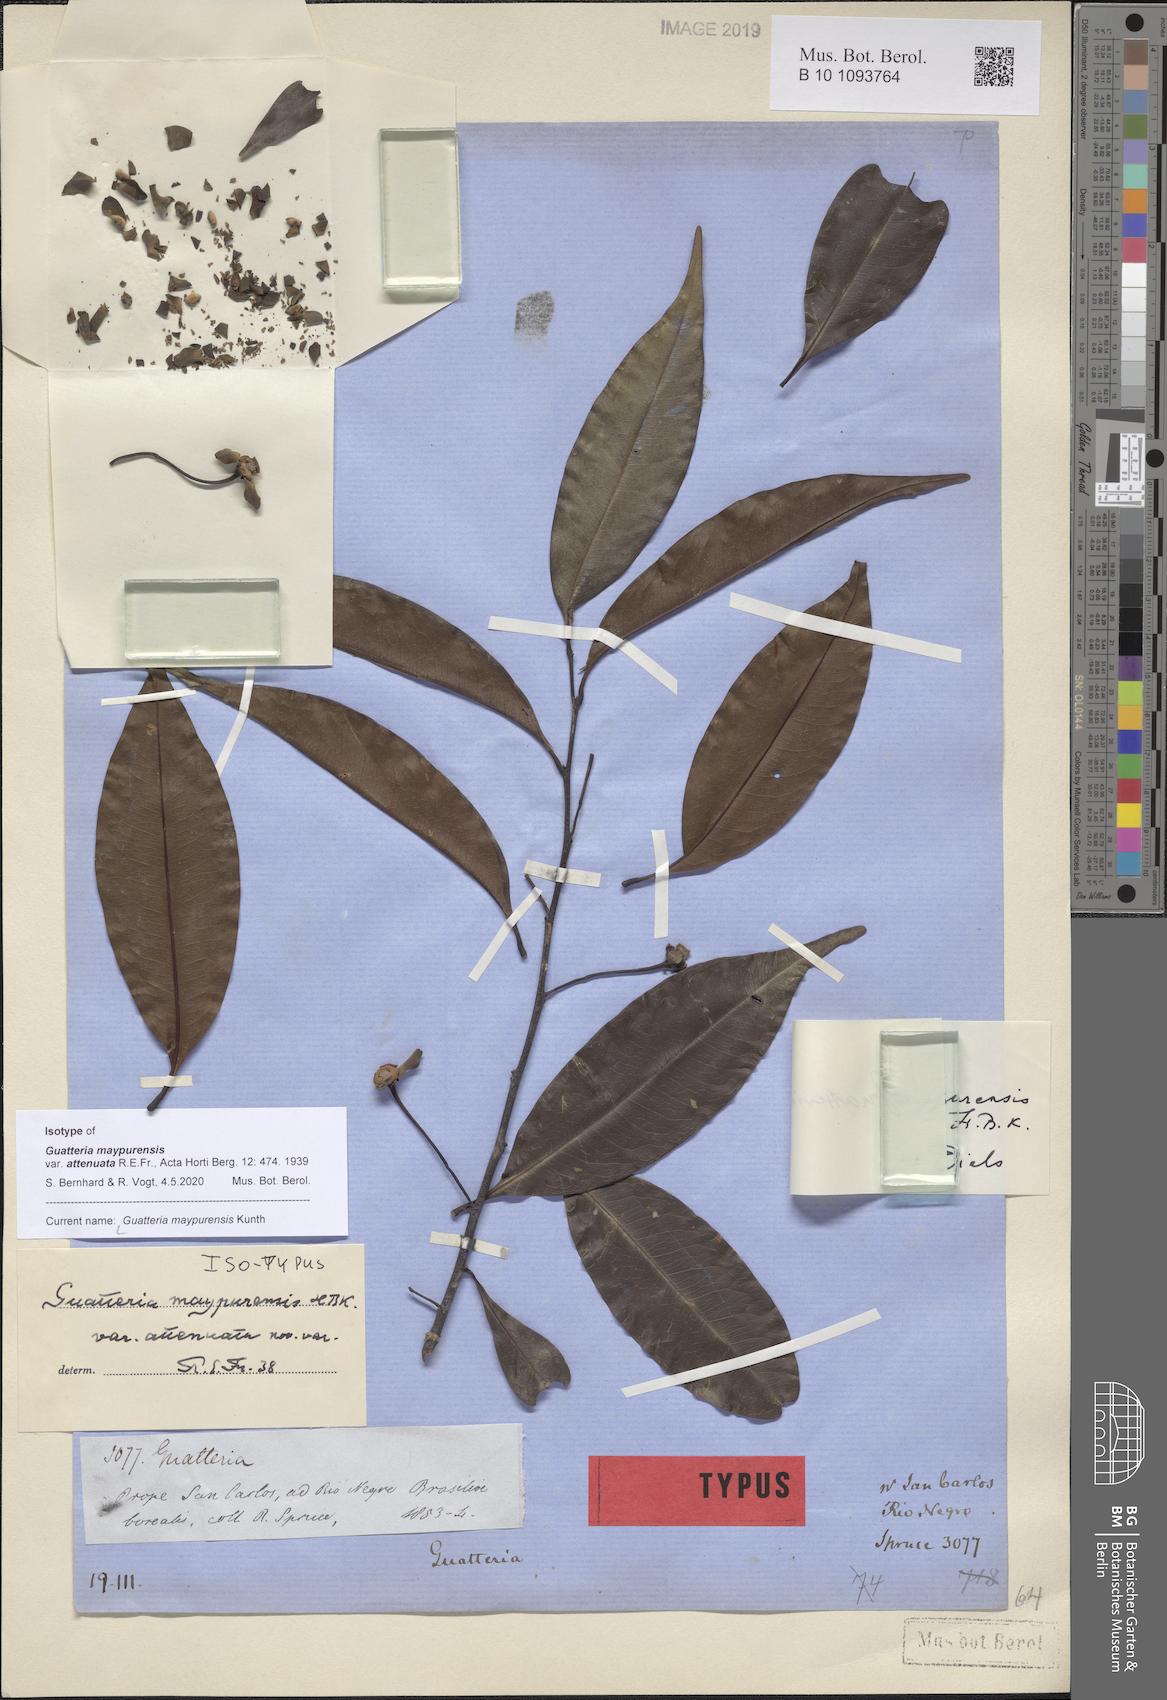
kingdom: Plantae
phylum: Tracheophyta
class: Magnoliopsida
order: Magnoliales
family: Annonaceae
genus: Guatteria
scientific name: Guatteria maypurensis
